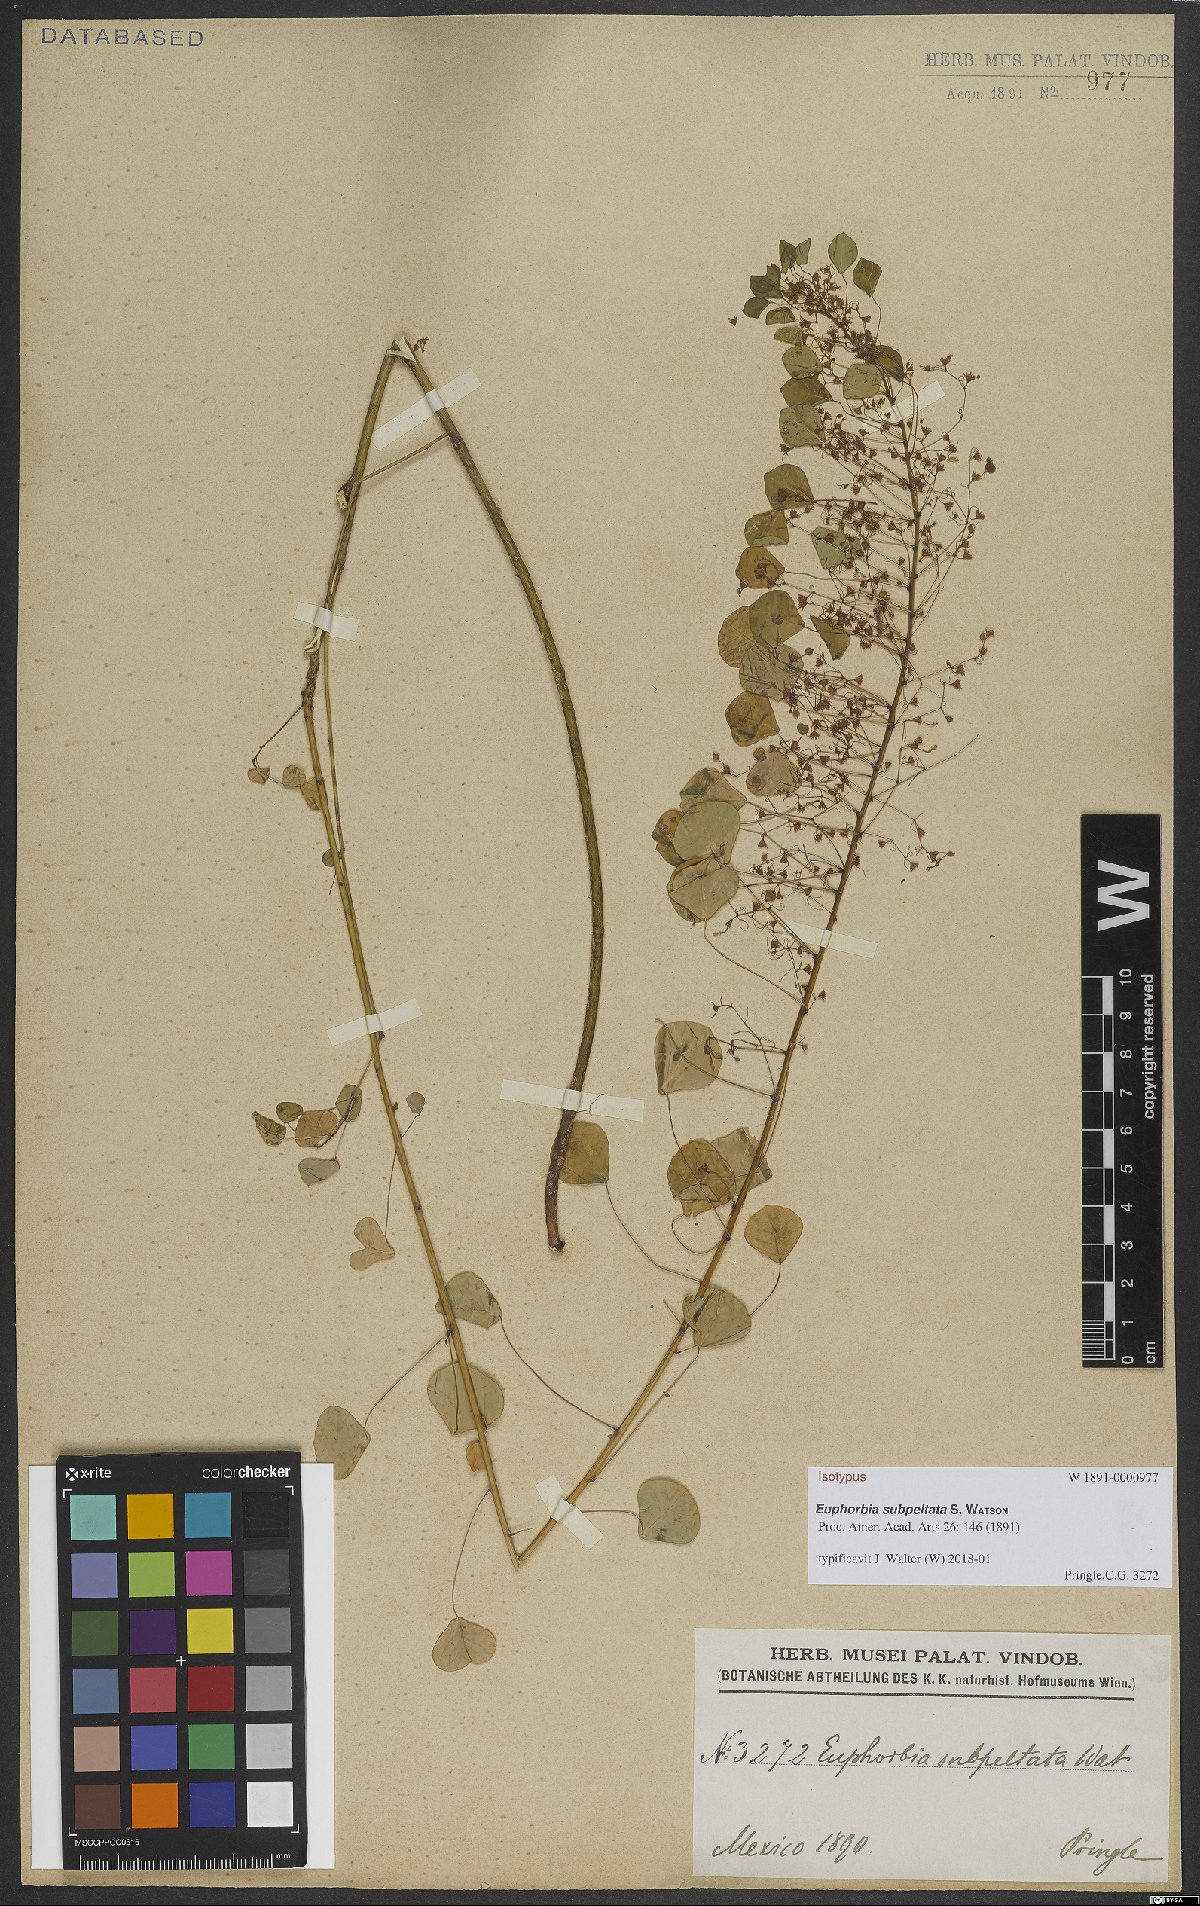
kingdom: Plantae
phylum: Tracheophyta
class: Magnoliopsida
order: Malpighiales
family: Euphorbiaceae
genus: Euphorbia
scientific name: Euphorbia subpeltata
